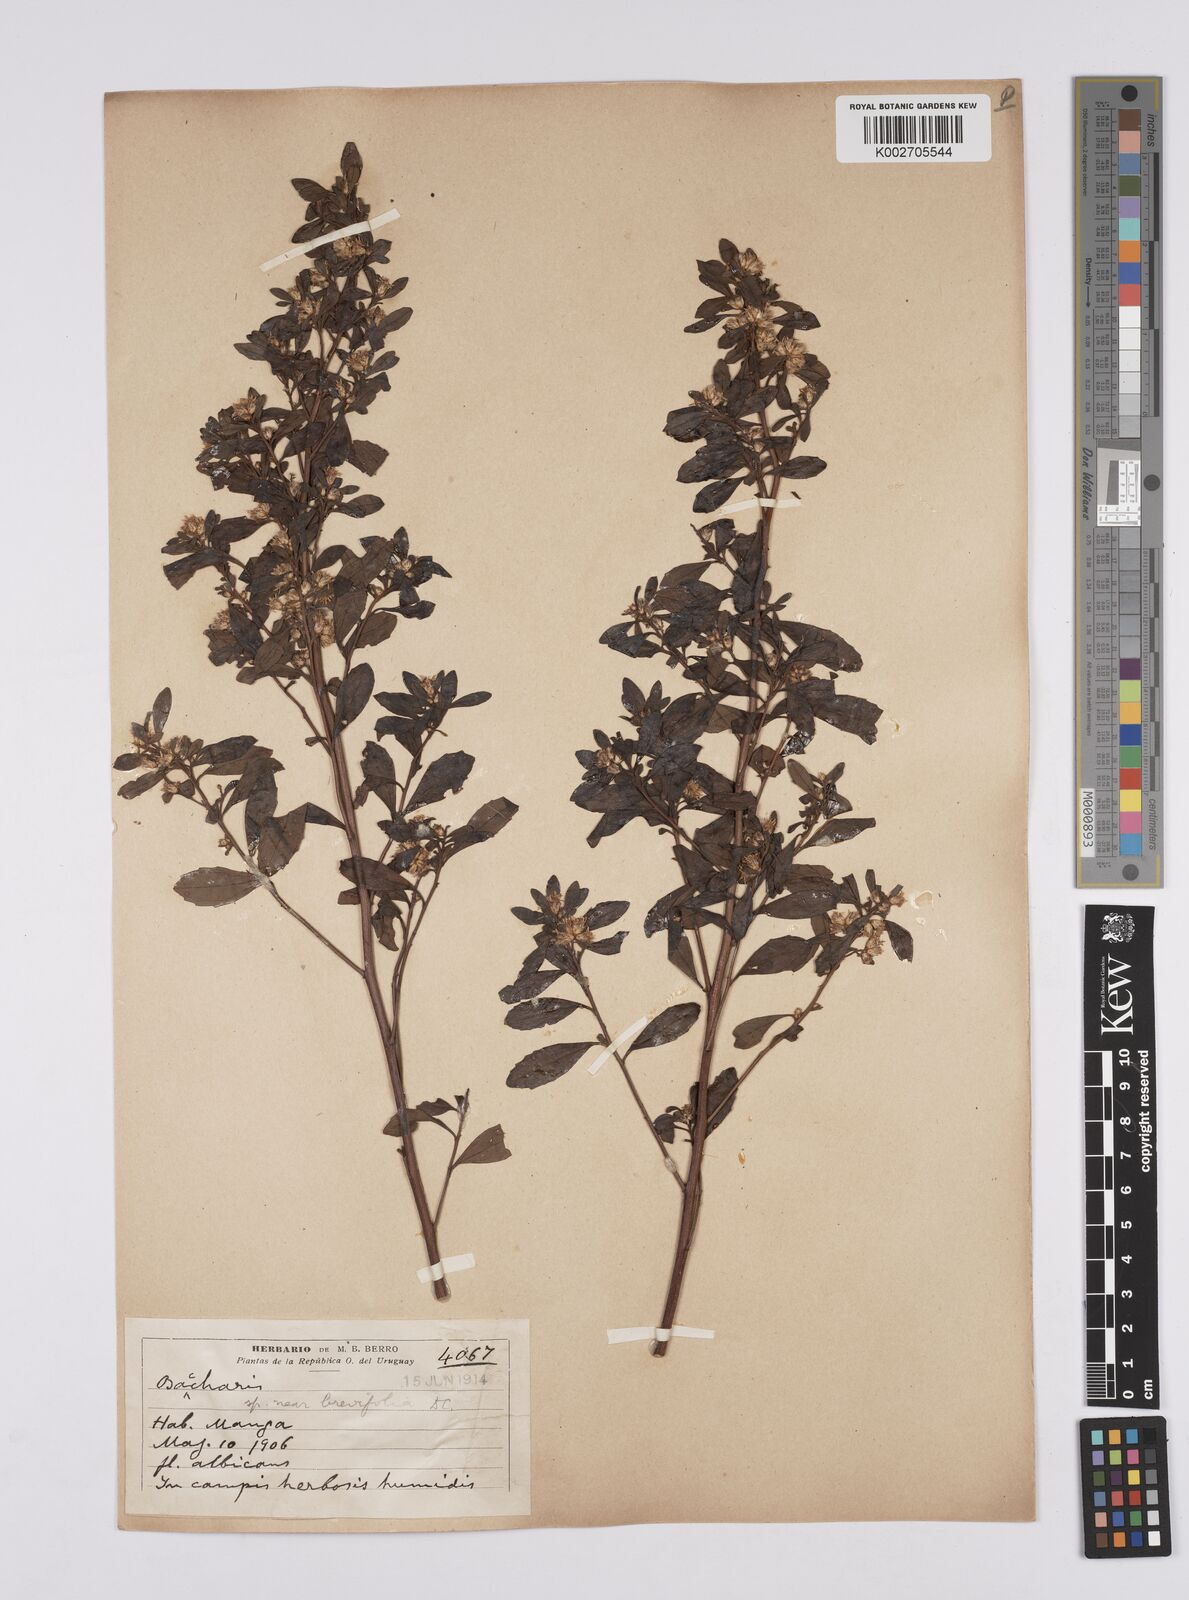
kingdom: Plantae
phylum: Tracheophyta
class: Magnoliopsida
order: Asterales
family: Asteraceae
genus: Baccharis
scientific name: Baccharis brevifolia
